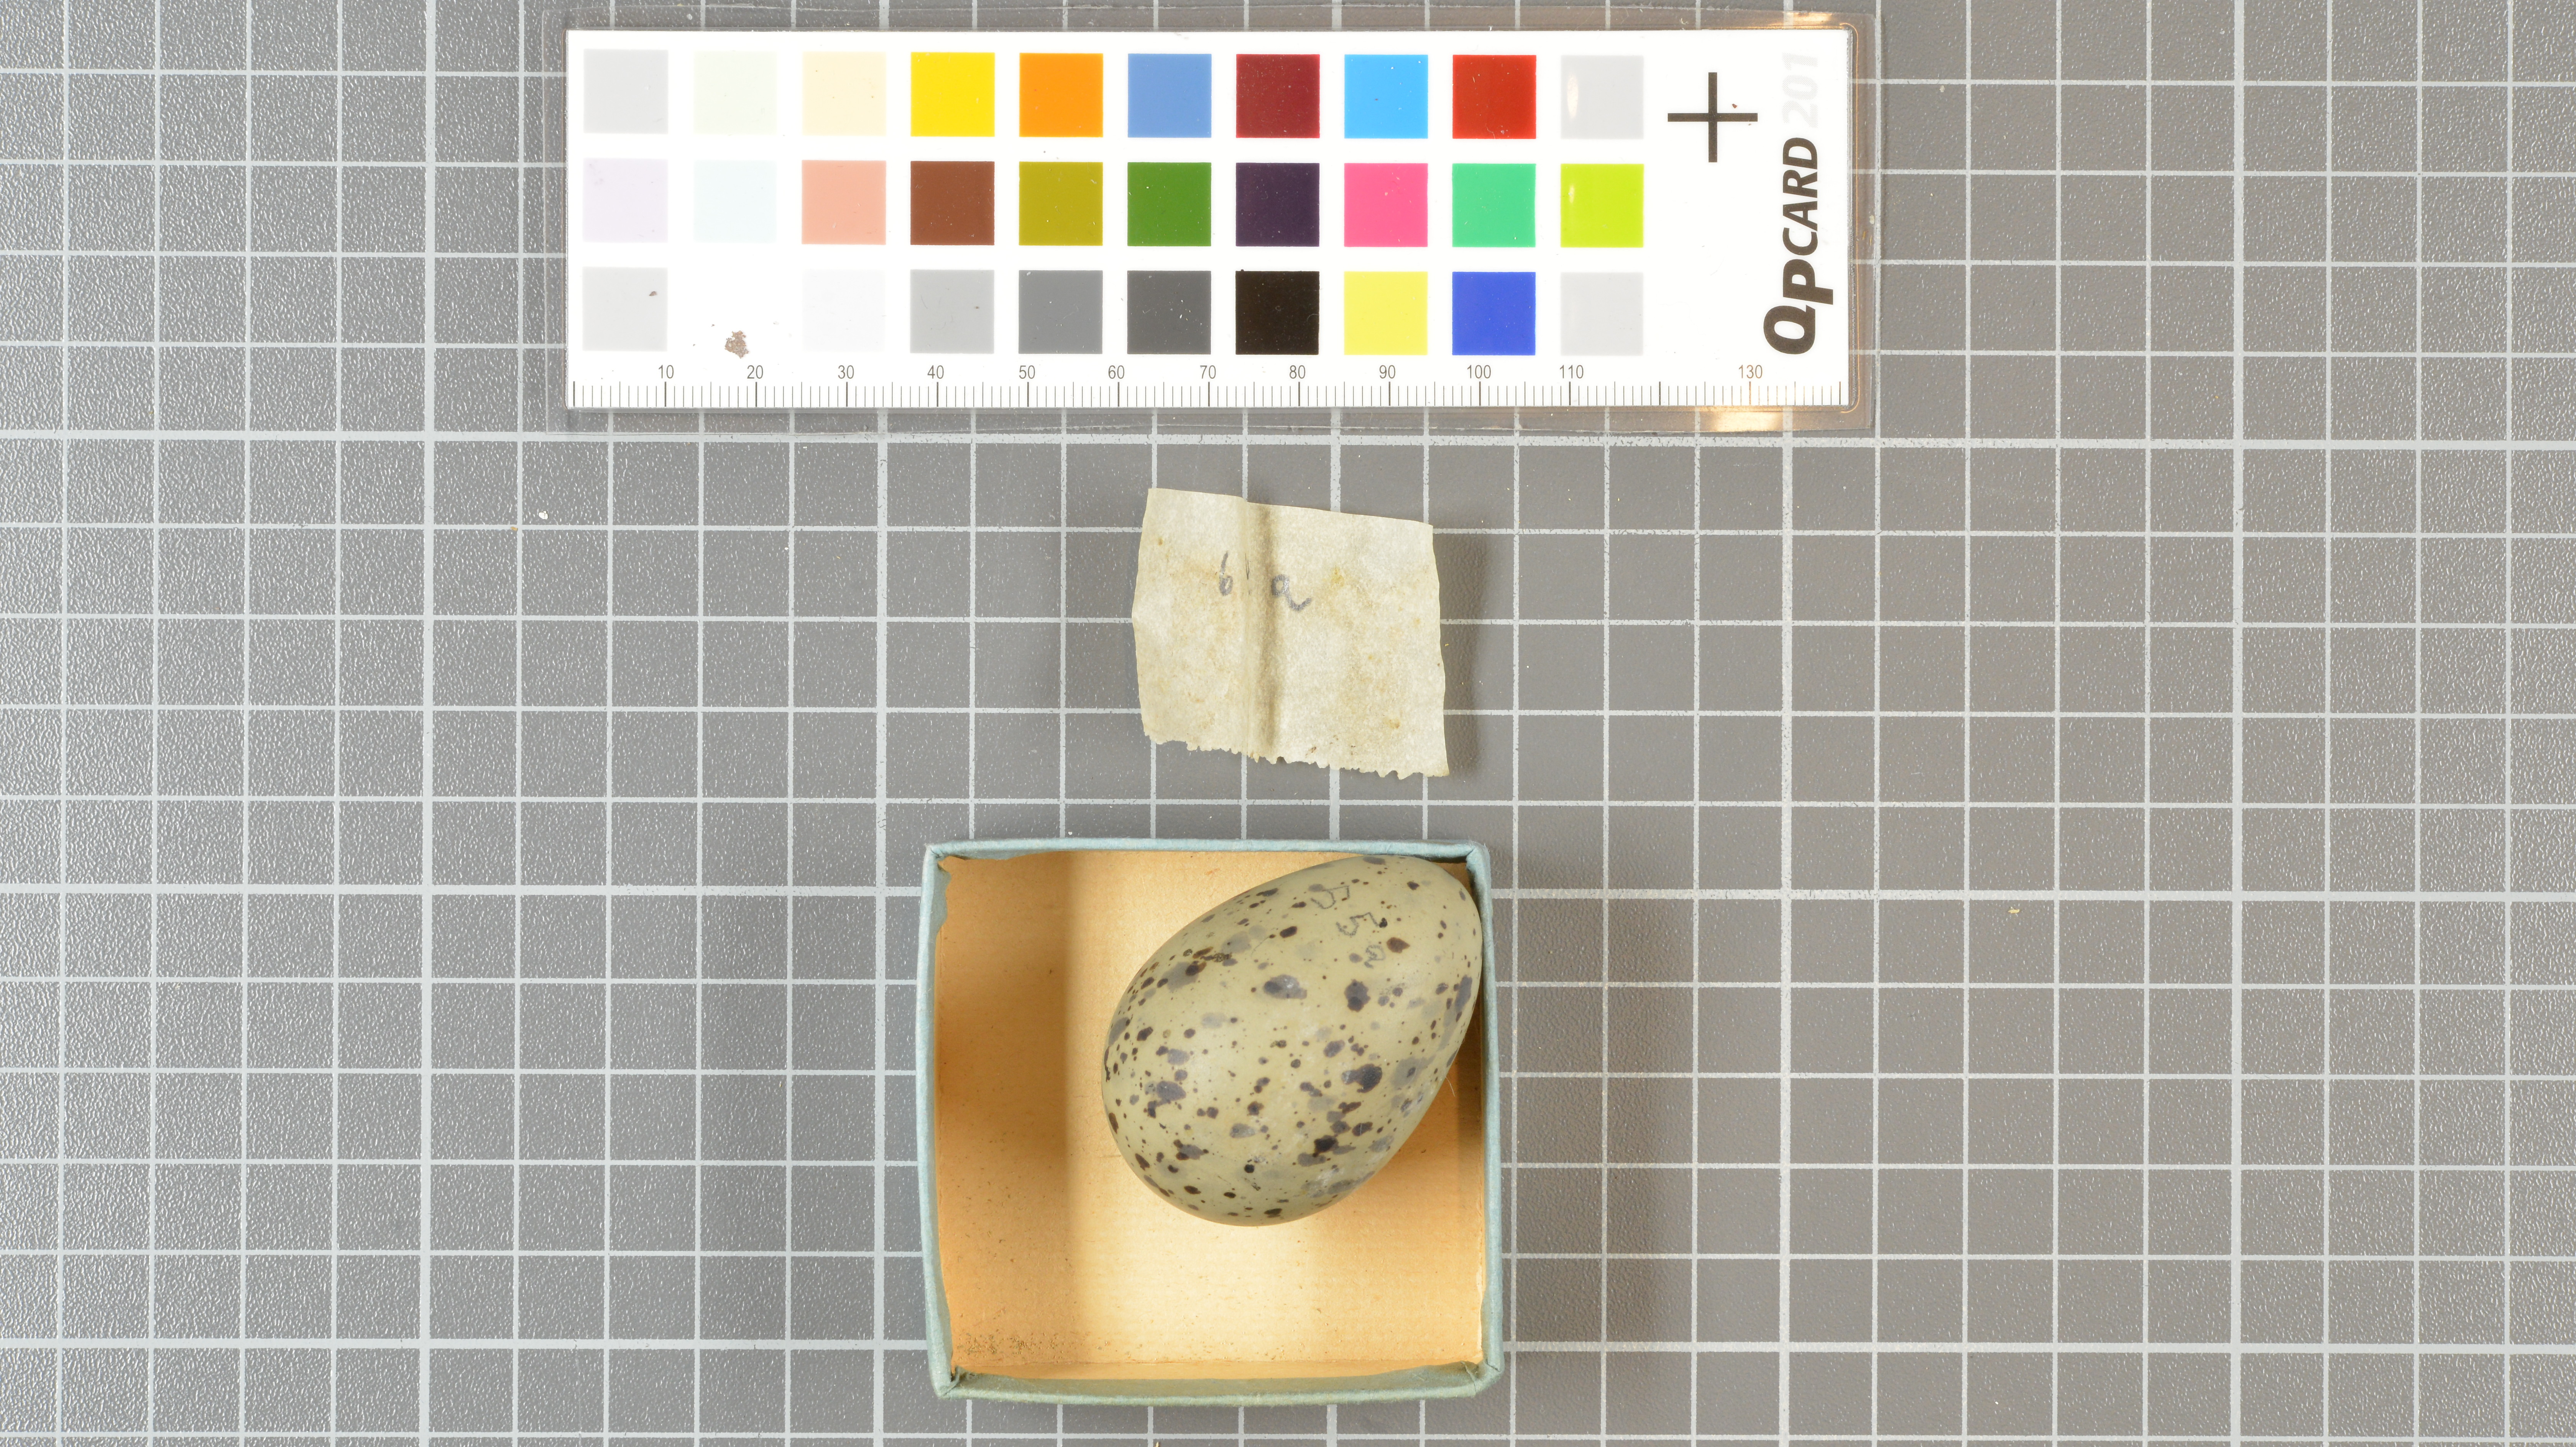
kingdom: Animalia
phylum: Chordata
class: Aves
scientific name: Aves
